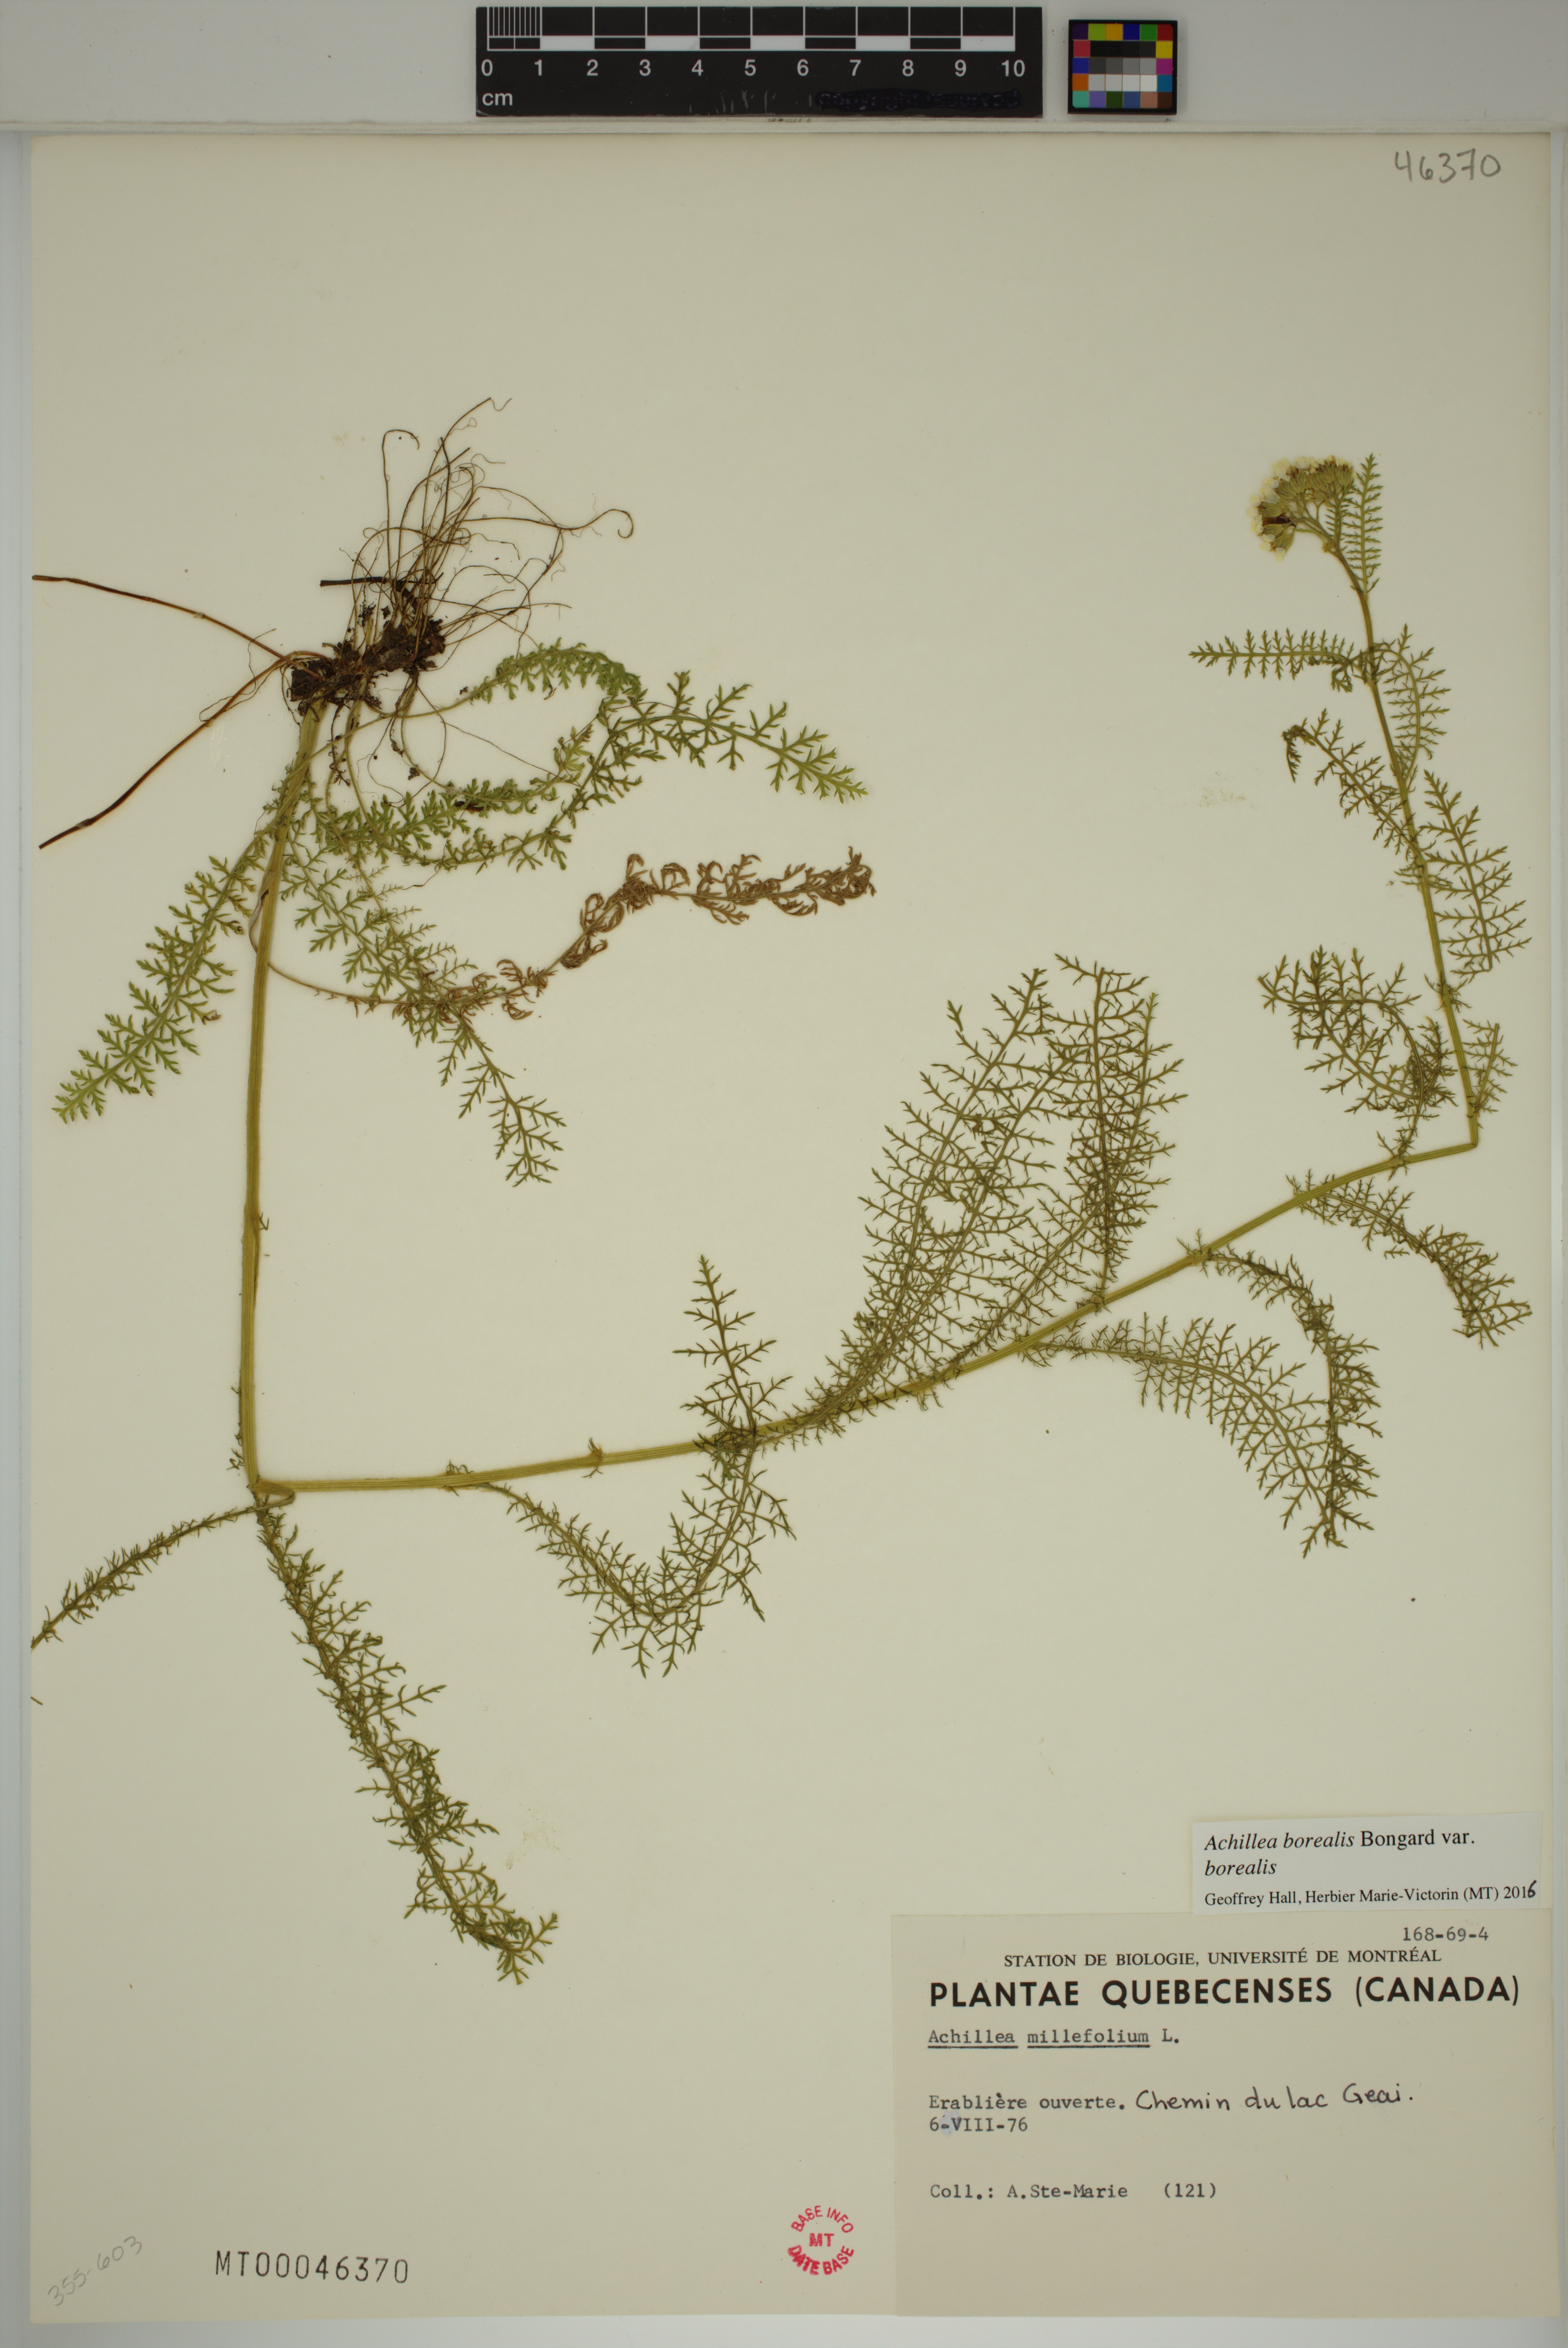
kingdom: Plantae
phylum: Tracheophyta
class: Magnoliopsida
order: Asterales
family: Asteraceae
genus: Achillea
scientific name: Achillea millefolium
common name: Yarrow
